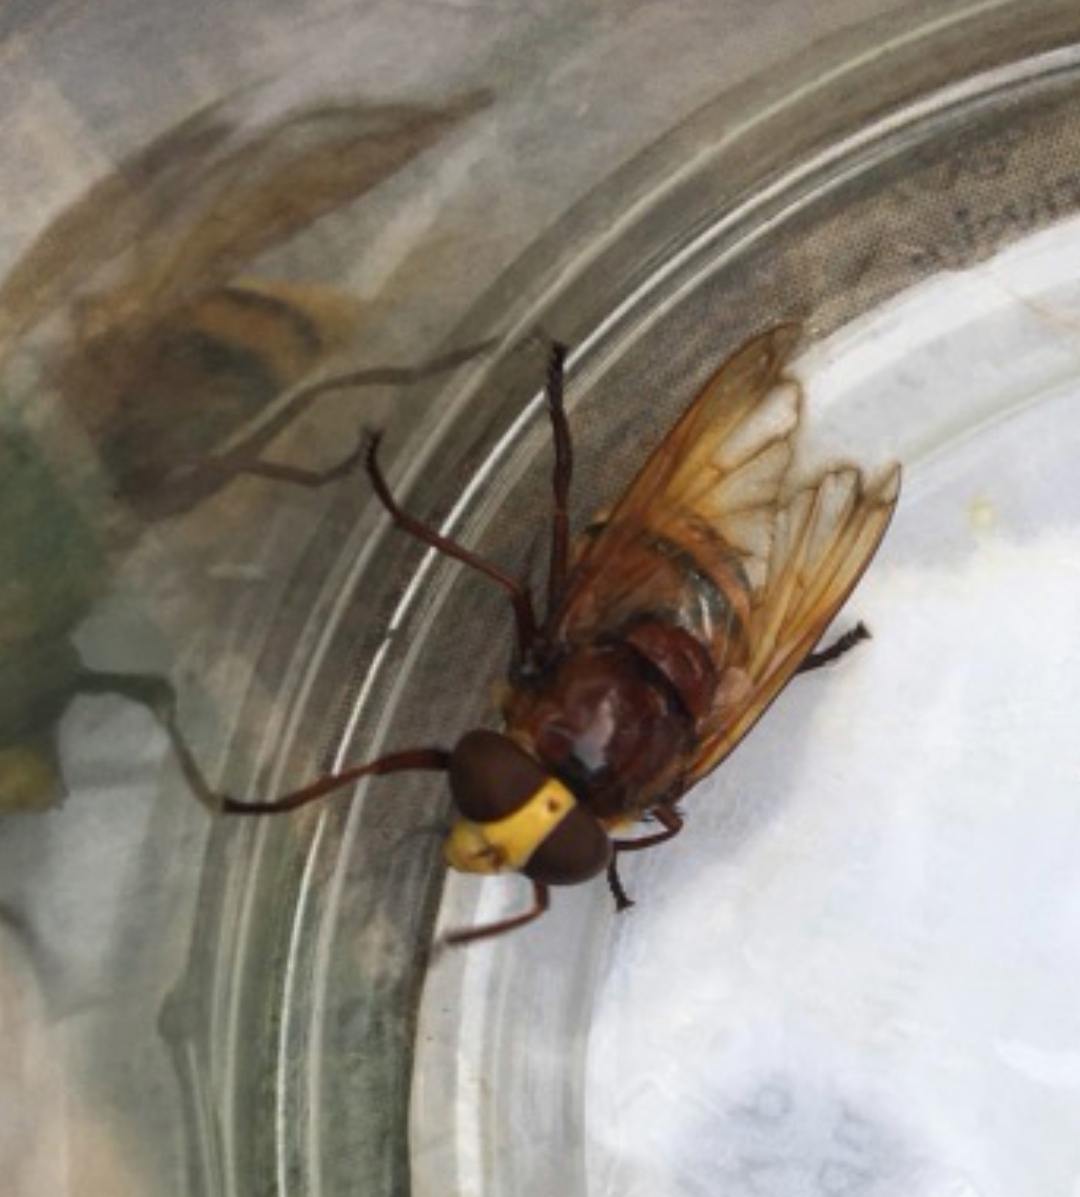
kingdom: Animalia
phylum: Arthropoda
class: Insecta
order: Diptera
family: Syrphidae
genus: Volucella
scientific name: Volucella zonaria
